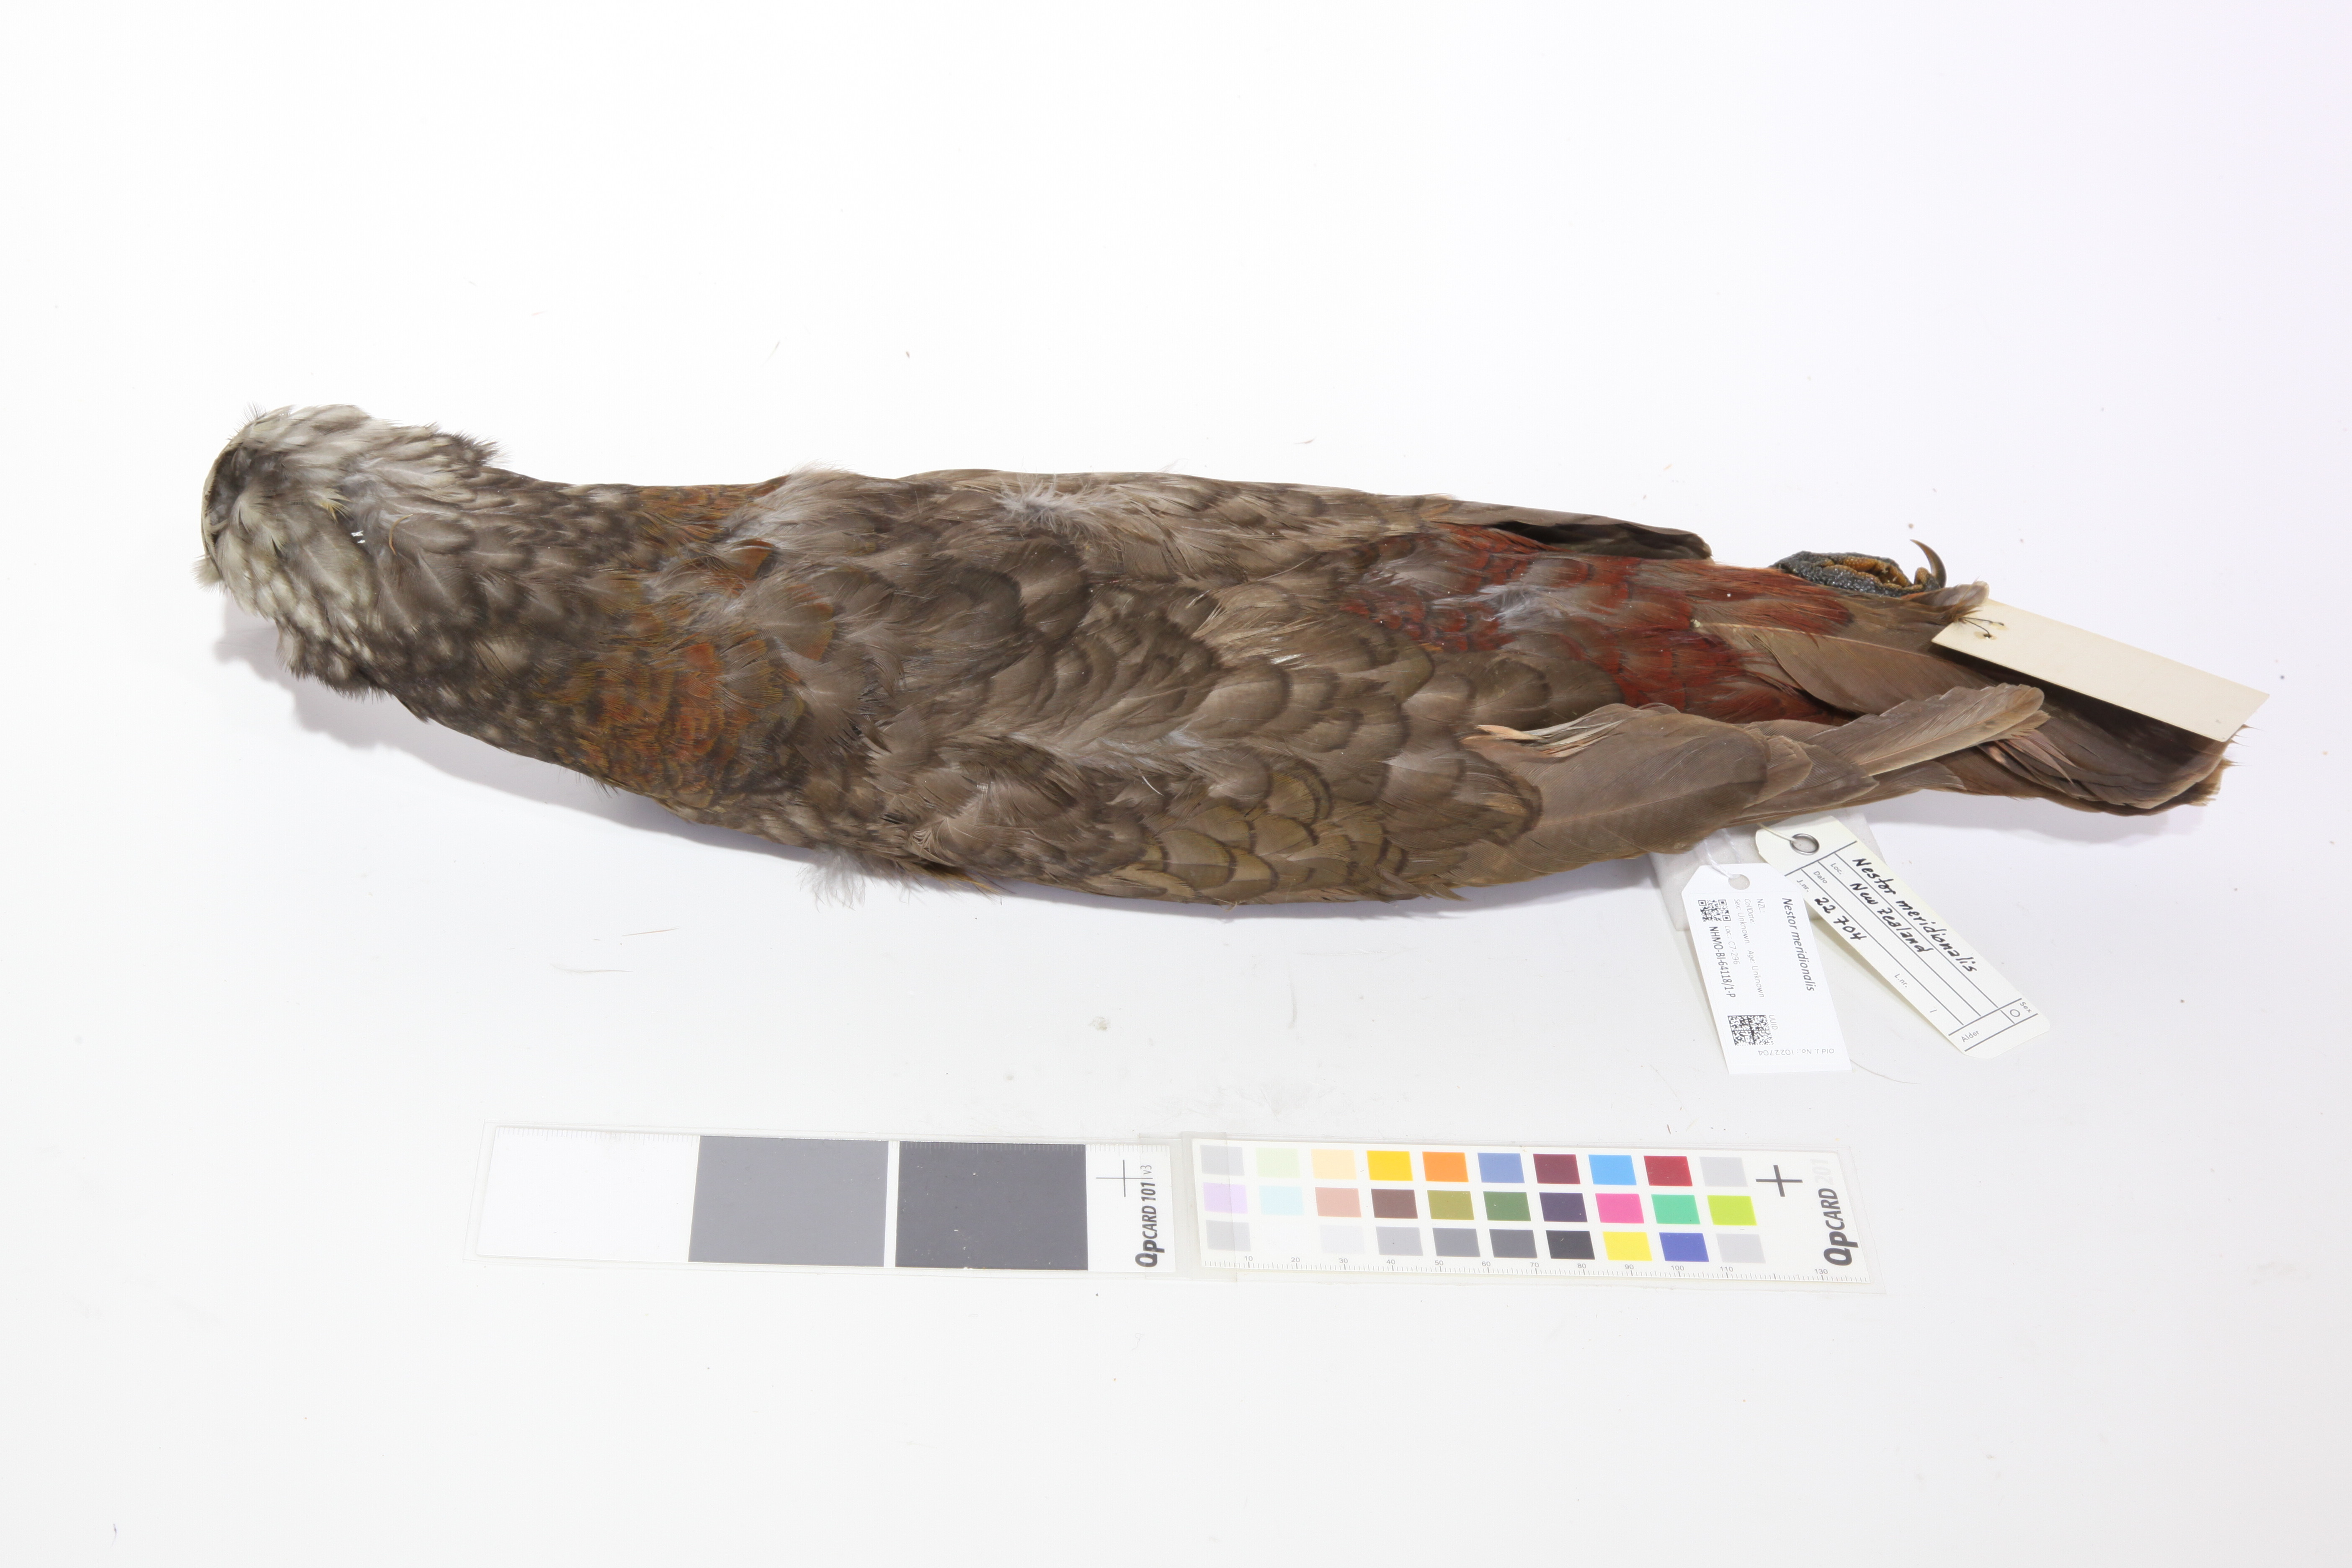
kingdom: Animalia
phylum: Chordata
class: Aves
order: Psittaciformes
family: Psittacidae
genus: Nestor
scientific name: Nestor meridionalis
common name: New zealand kaka
